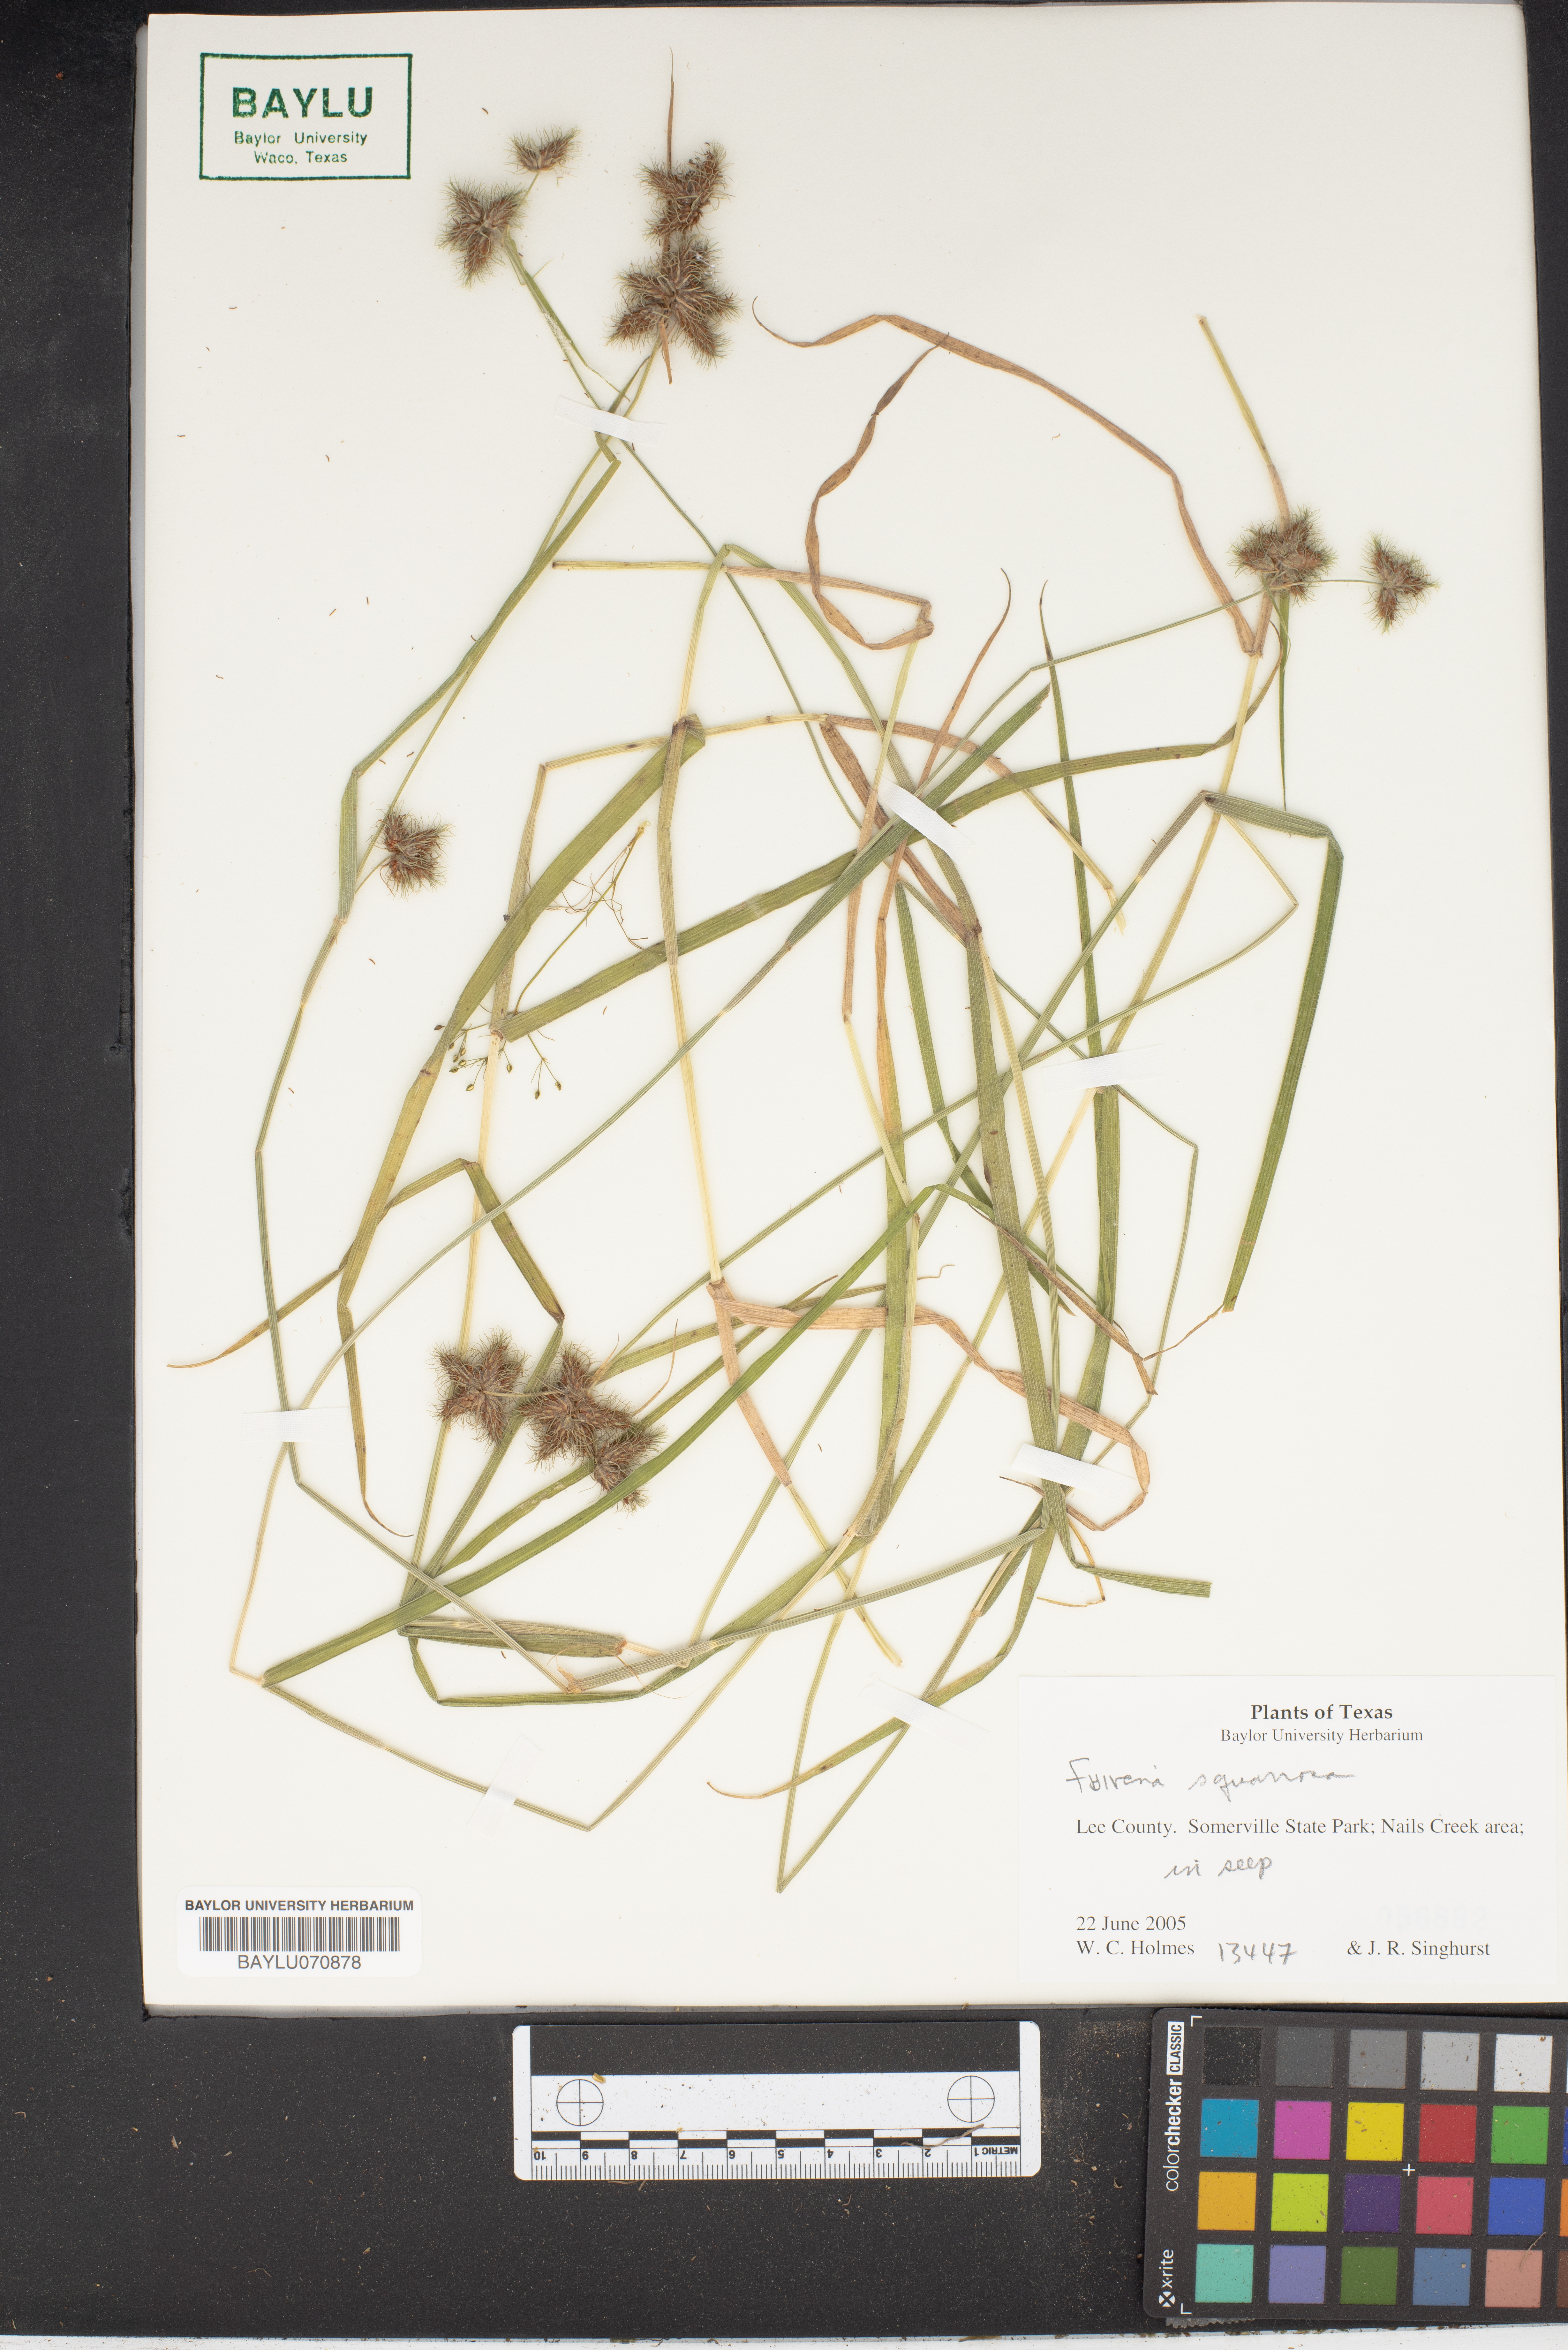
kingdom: Plantae
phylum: Tracheophyta
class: Liliopsida
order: Poales
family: Cyperaceae
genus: Fuirena
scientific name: Fuirena squarrosa
